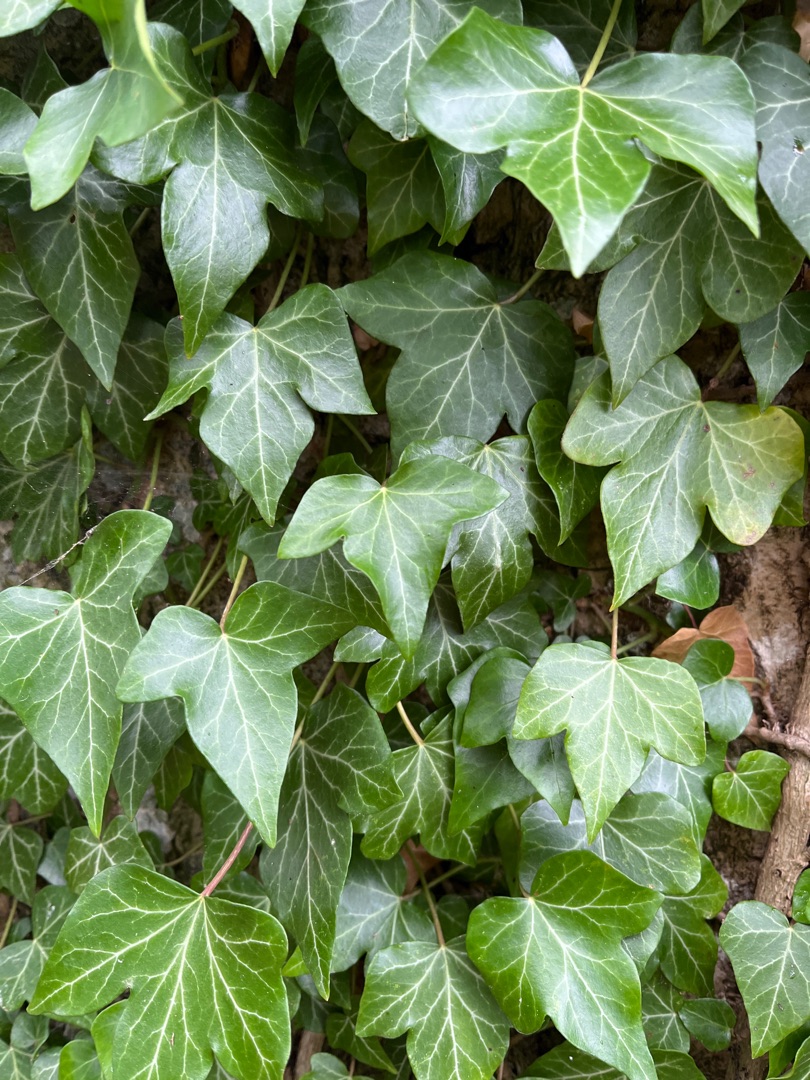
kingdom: Plantae
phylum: Tracheophyta
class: Magnoliopsida
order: Apiales
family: Araliaceae
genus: Hedera
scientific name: Hedera helix
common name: Vedbend
